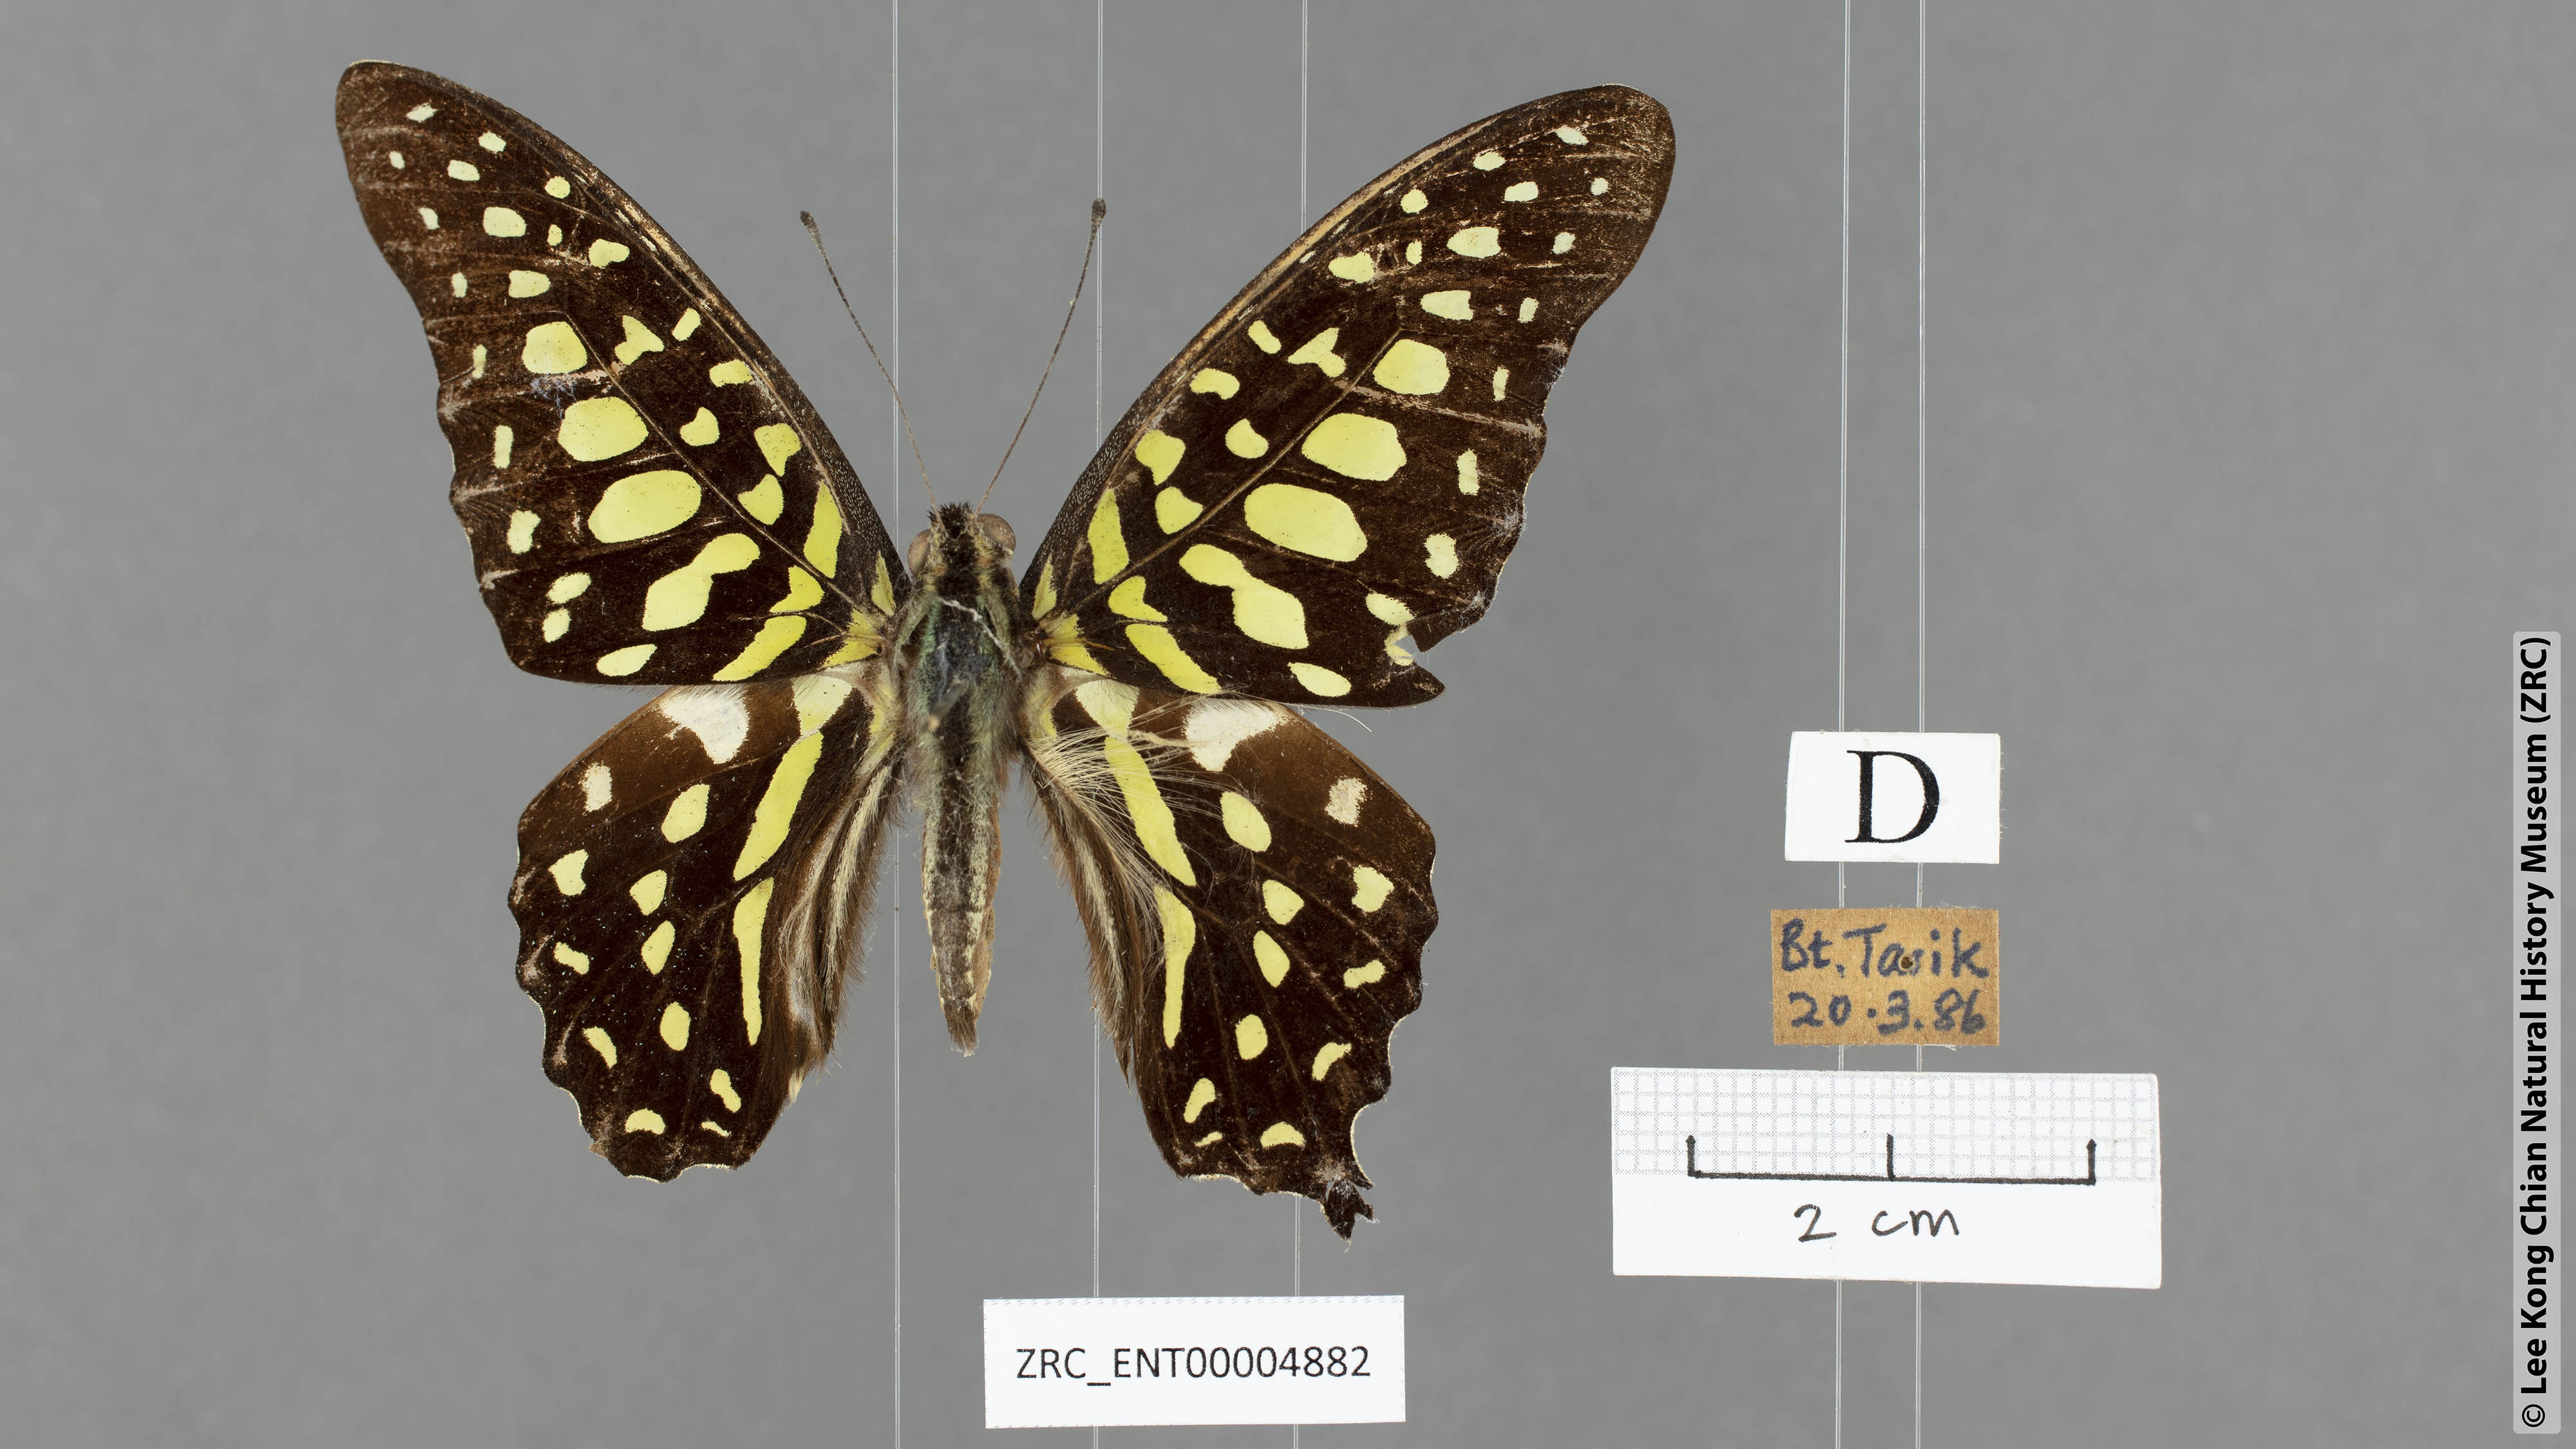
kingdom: Animalia
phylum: Arthropoda
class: Insecta
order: Lepidoptera
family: Papilionidae
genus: Graphium
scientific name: Graphium agamemnon
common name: Tailed jay
